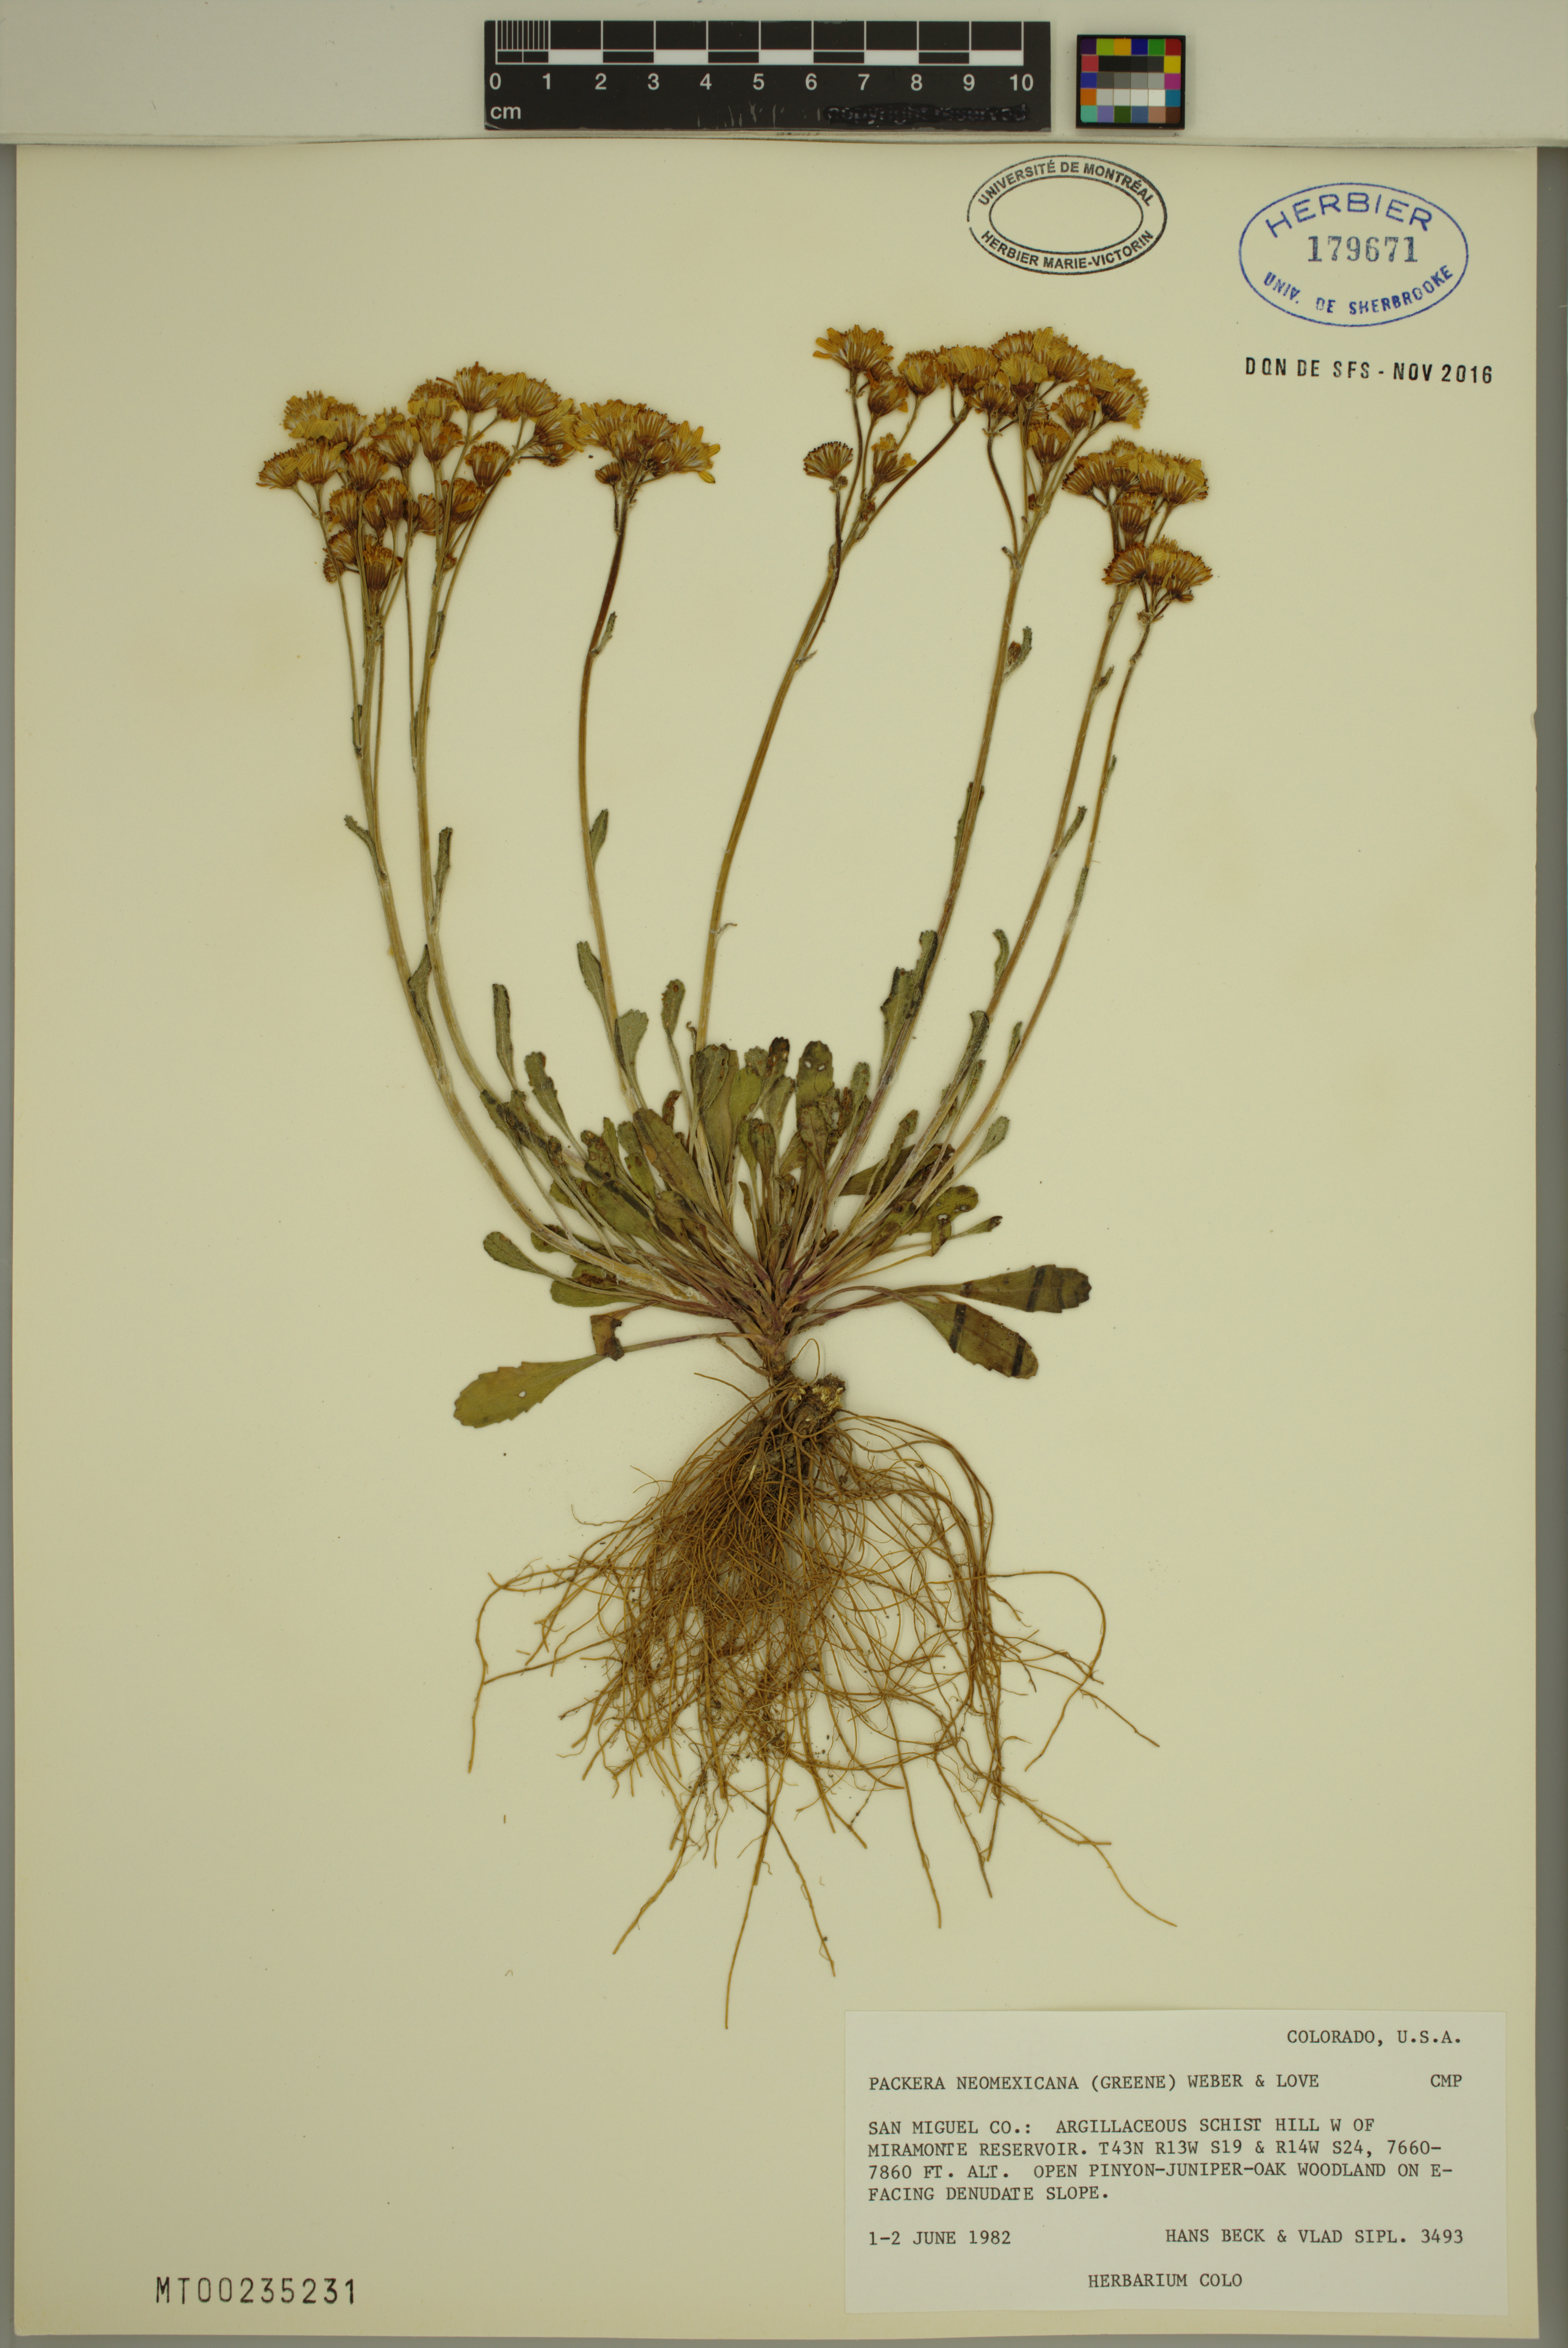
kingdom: Plantae
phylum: Tracheophyta
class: Magnoliopsida
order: Asterales
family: Asteraceae
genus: Packera
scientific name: Packera neomexicana
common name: New mexico butterweed
